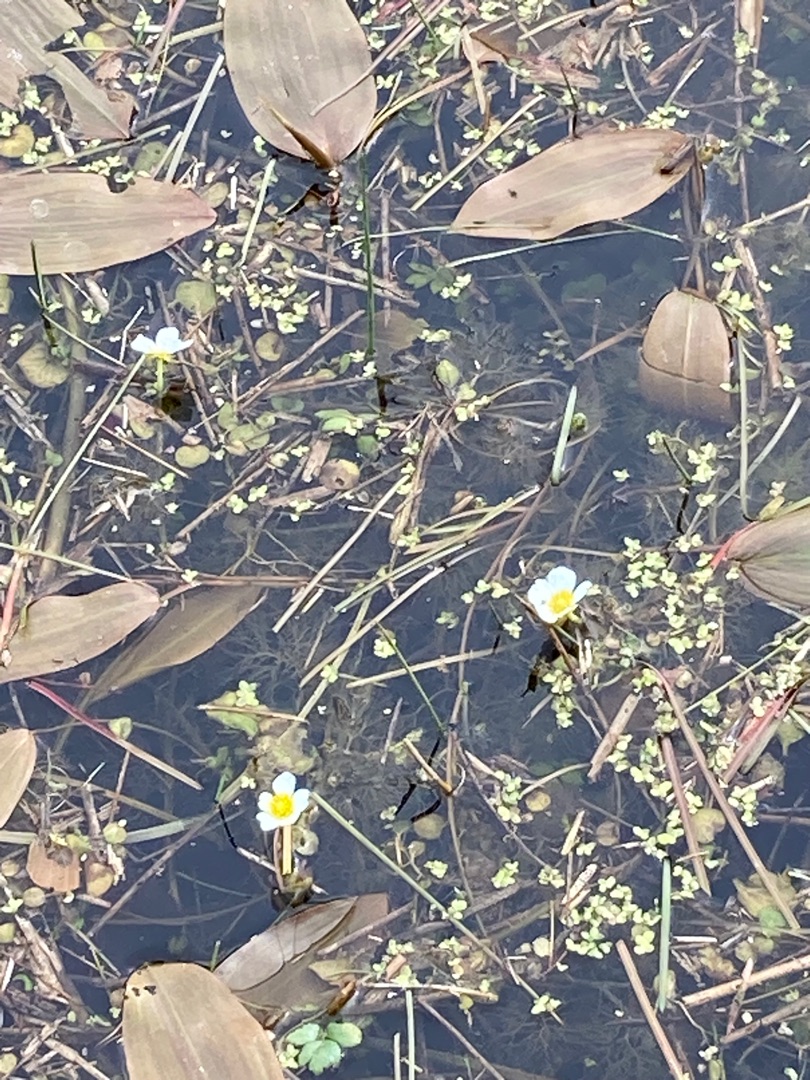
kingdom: Plantae
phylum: Tracheophyta
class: Magnoliopsida
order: Ranunculales
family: Ranunculaceae
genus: Ranunculus
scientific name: Ranunculus
